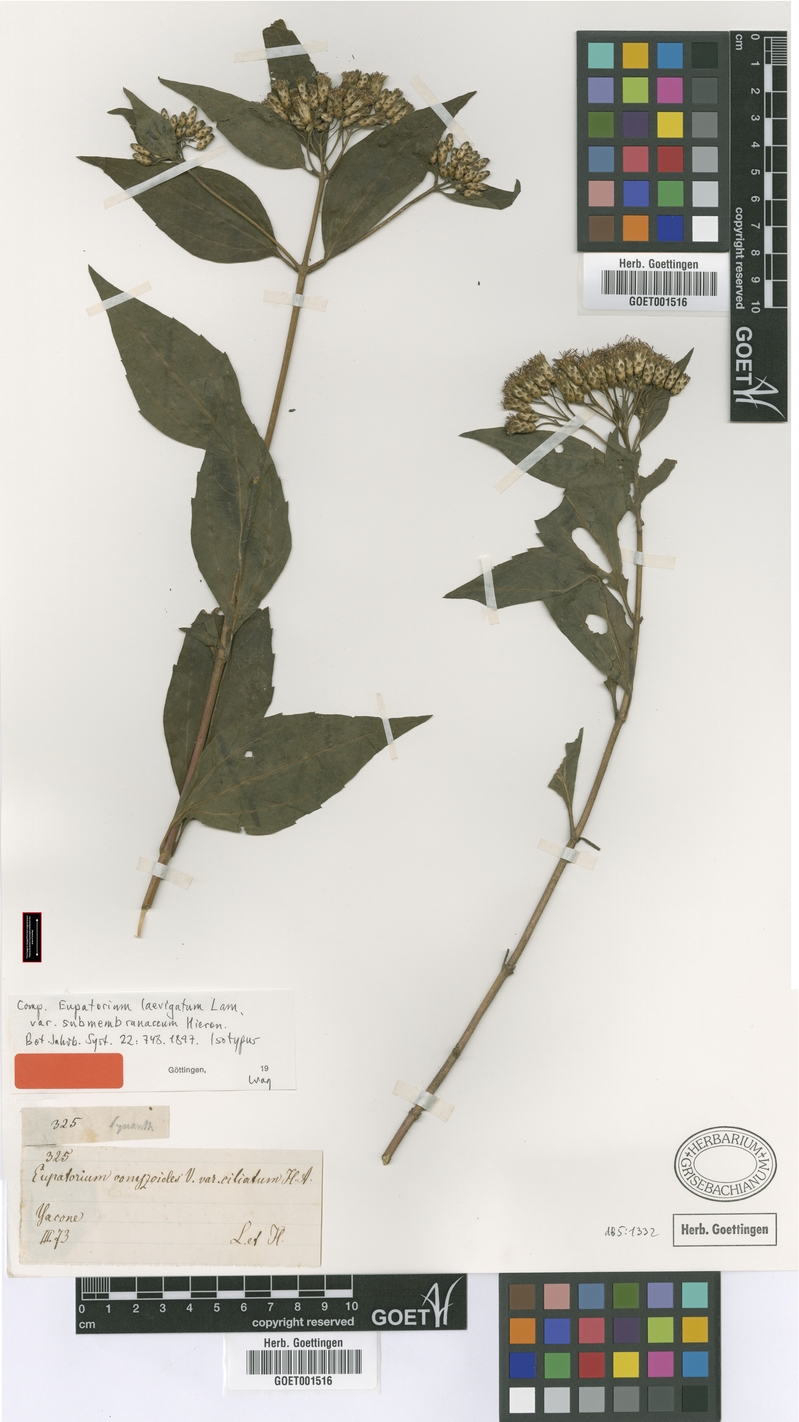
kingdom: Plantae
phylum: Tracheophyta
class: Magnoliopsida
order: Asterales
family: Asteraceae
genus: Chromolaena
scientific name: Chromolaena laevigata
